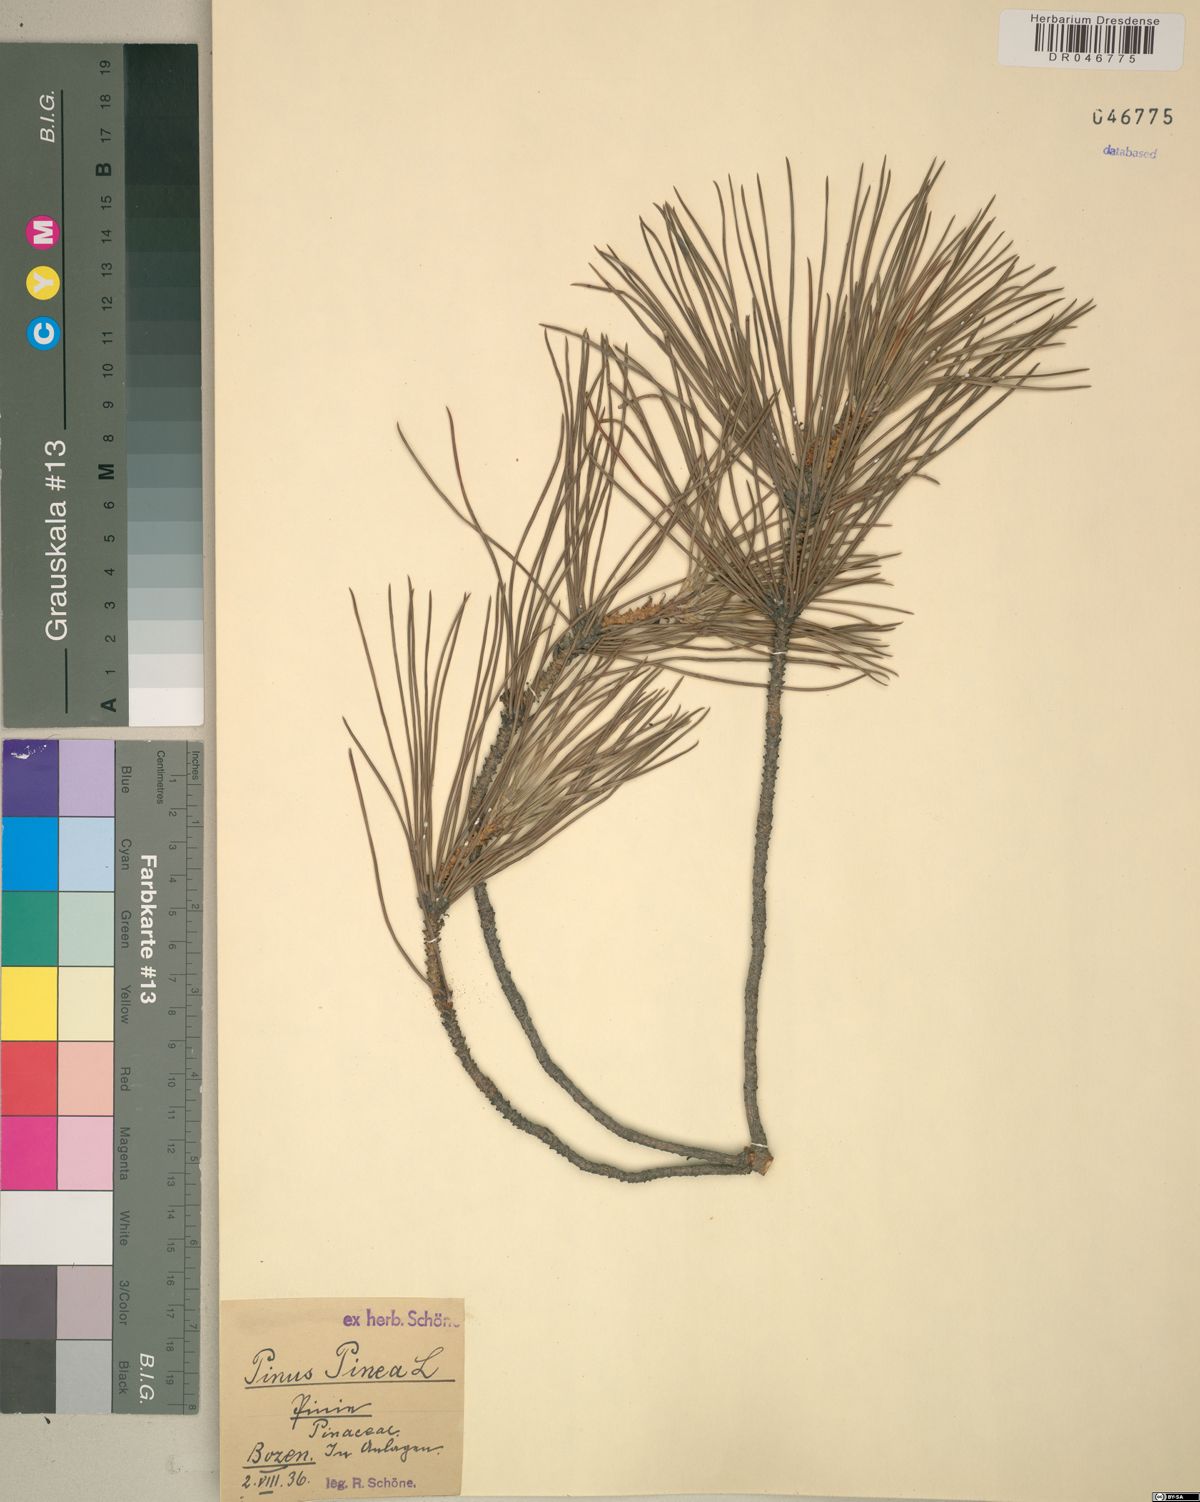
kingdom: Plantae
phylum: Tracheophyta
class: Pinopsida
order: Pinales
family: Pinaceae
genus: Pinus
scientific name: Pinus pinea
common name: Italian stone pine
